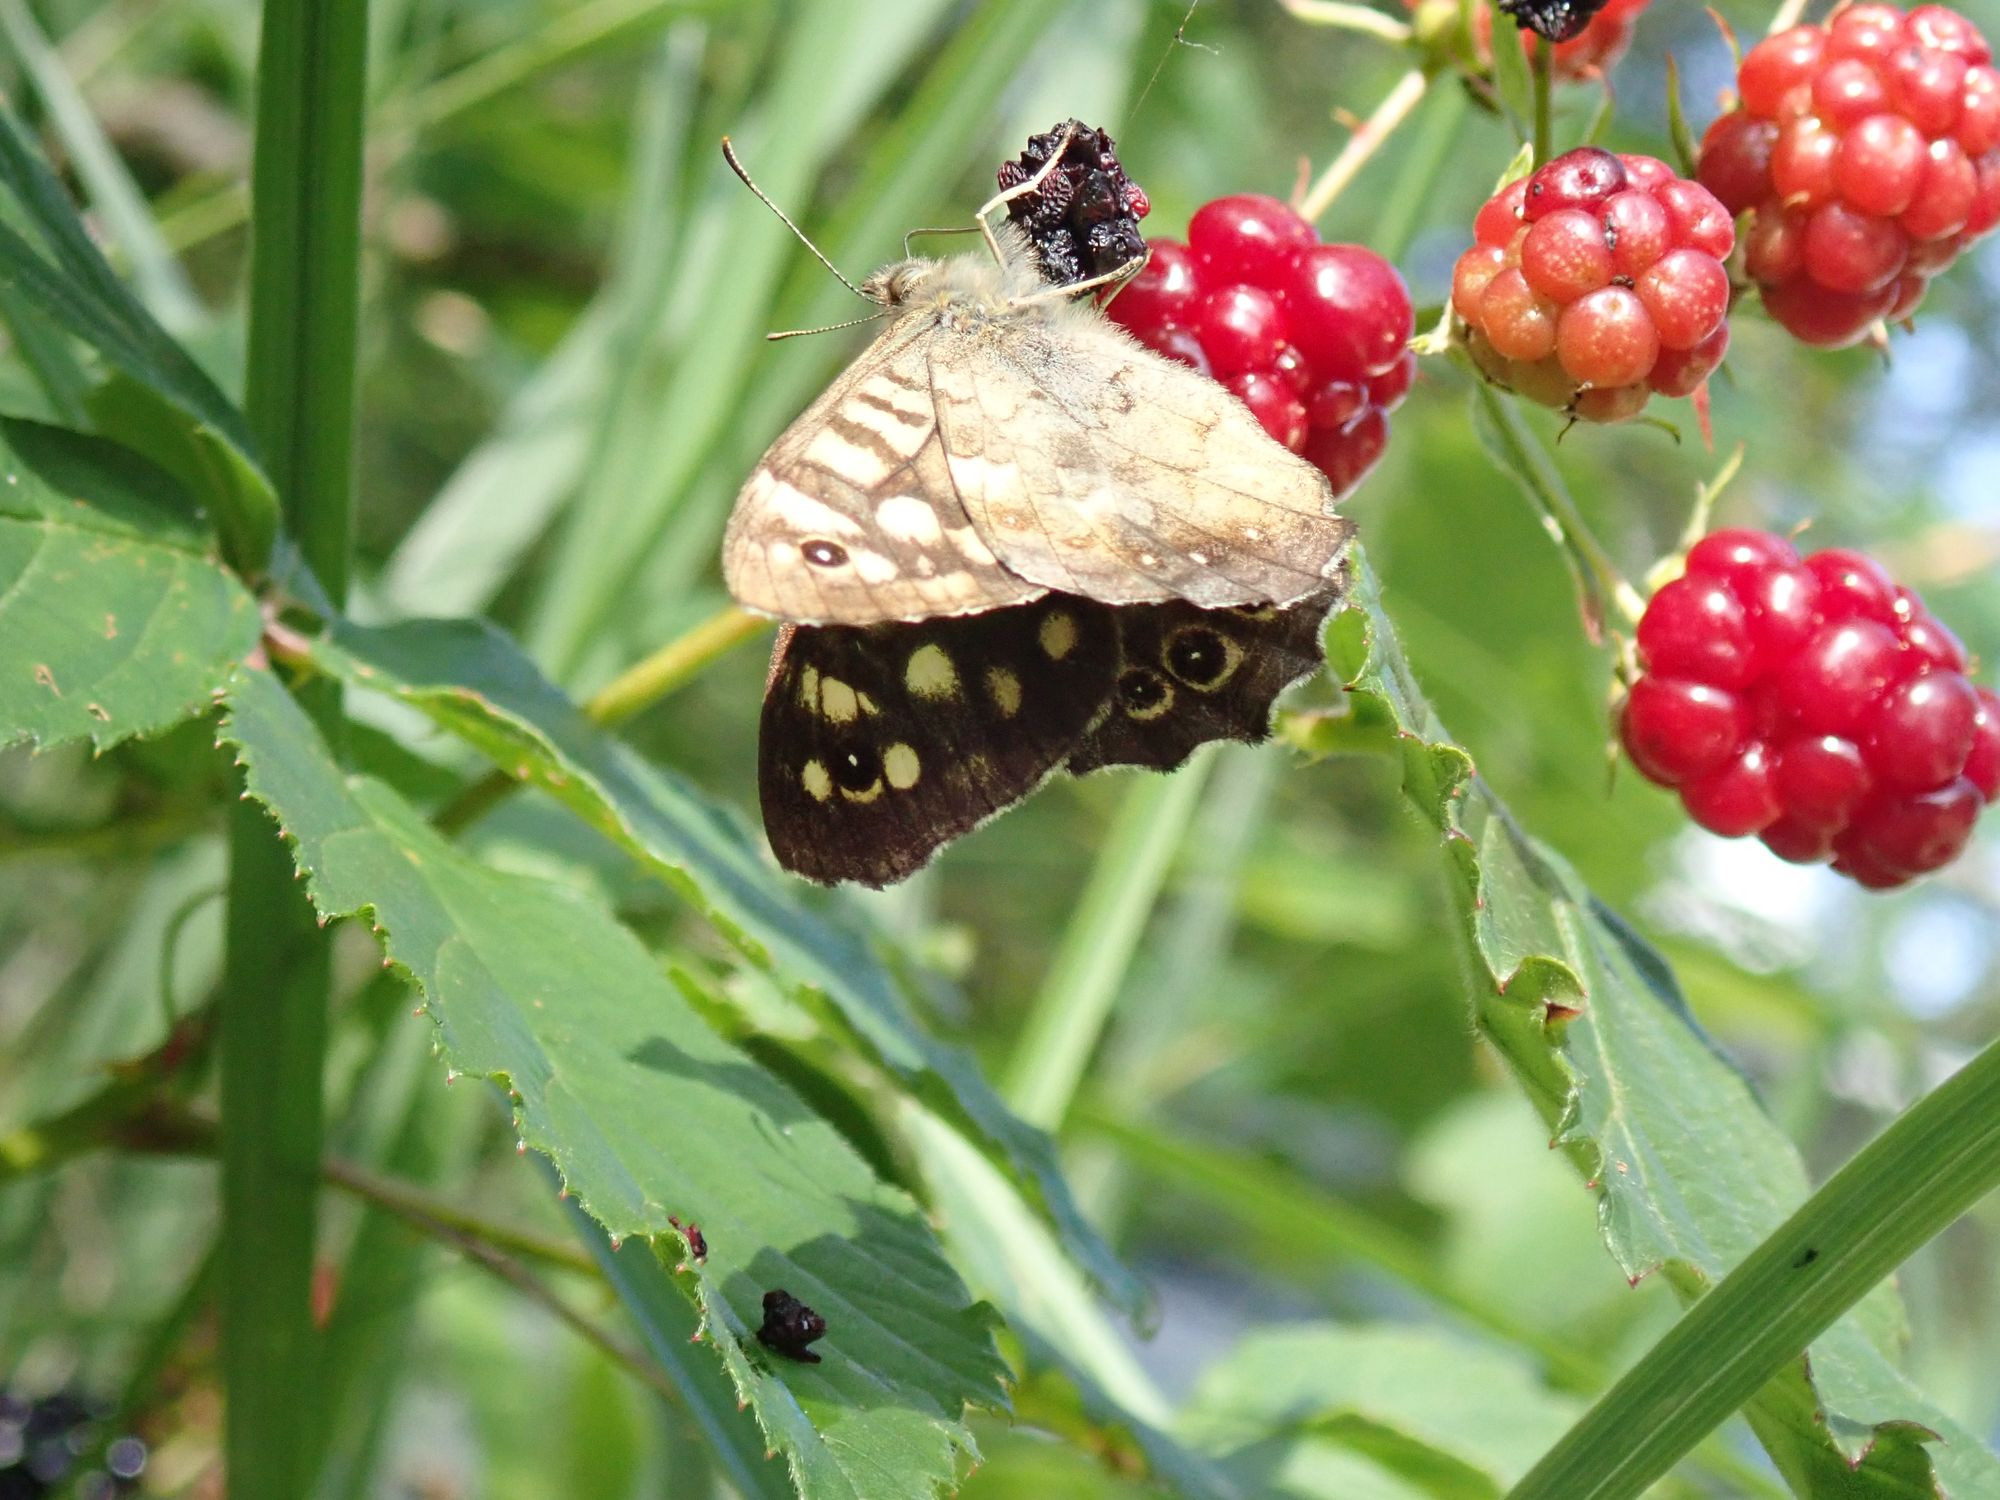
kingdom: Animalia
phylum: Arthropoda
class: Insecta
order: Lepidoptera
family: Nymphalidae
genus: Pararge
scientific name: Pararge aegeria
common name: Skovrandøje
